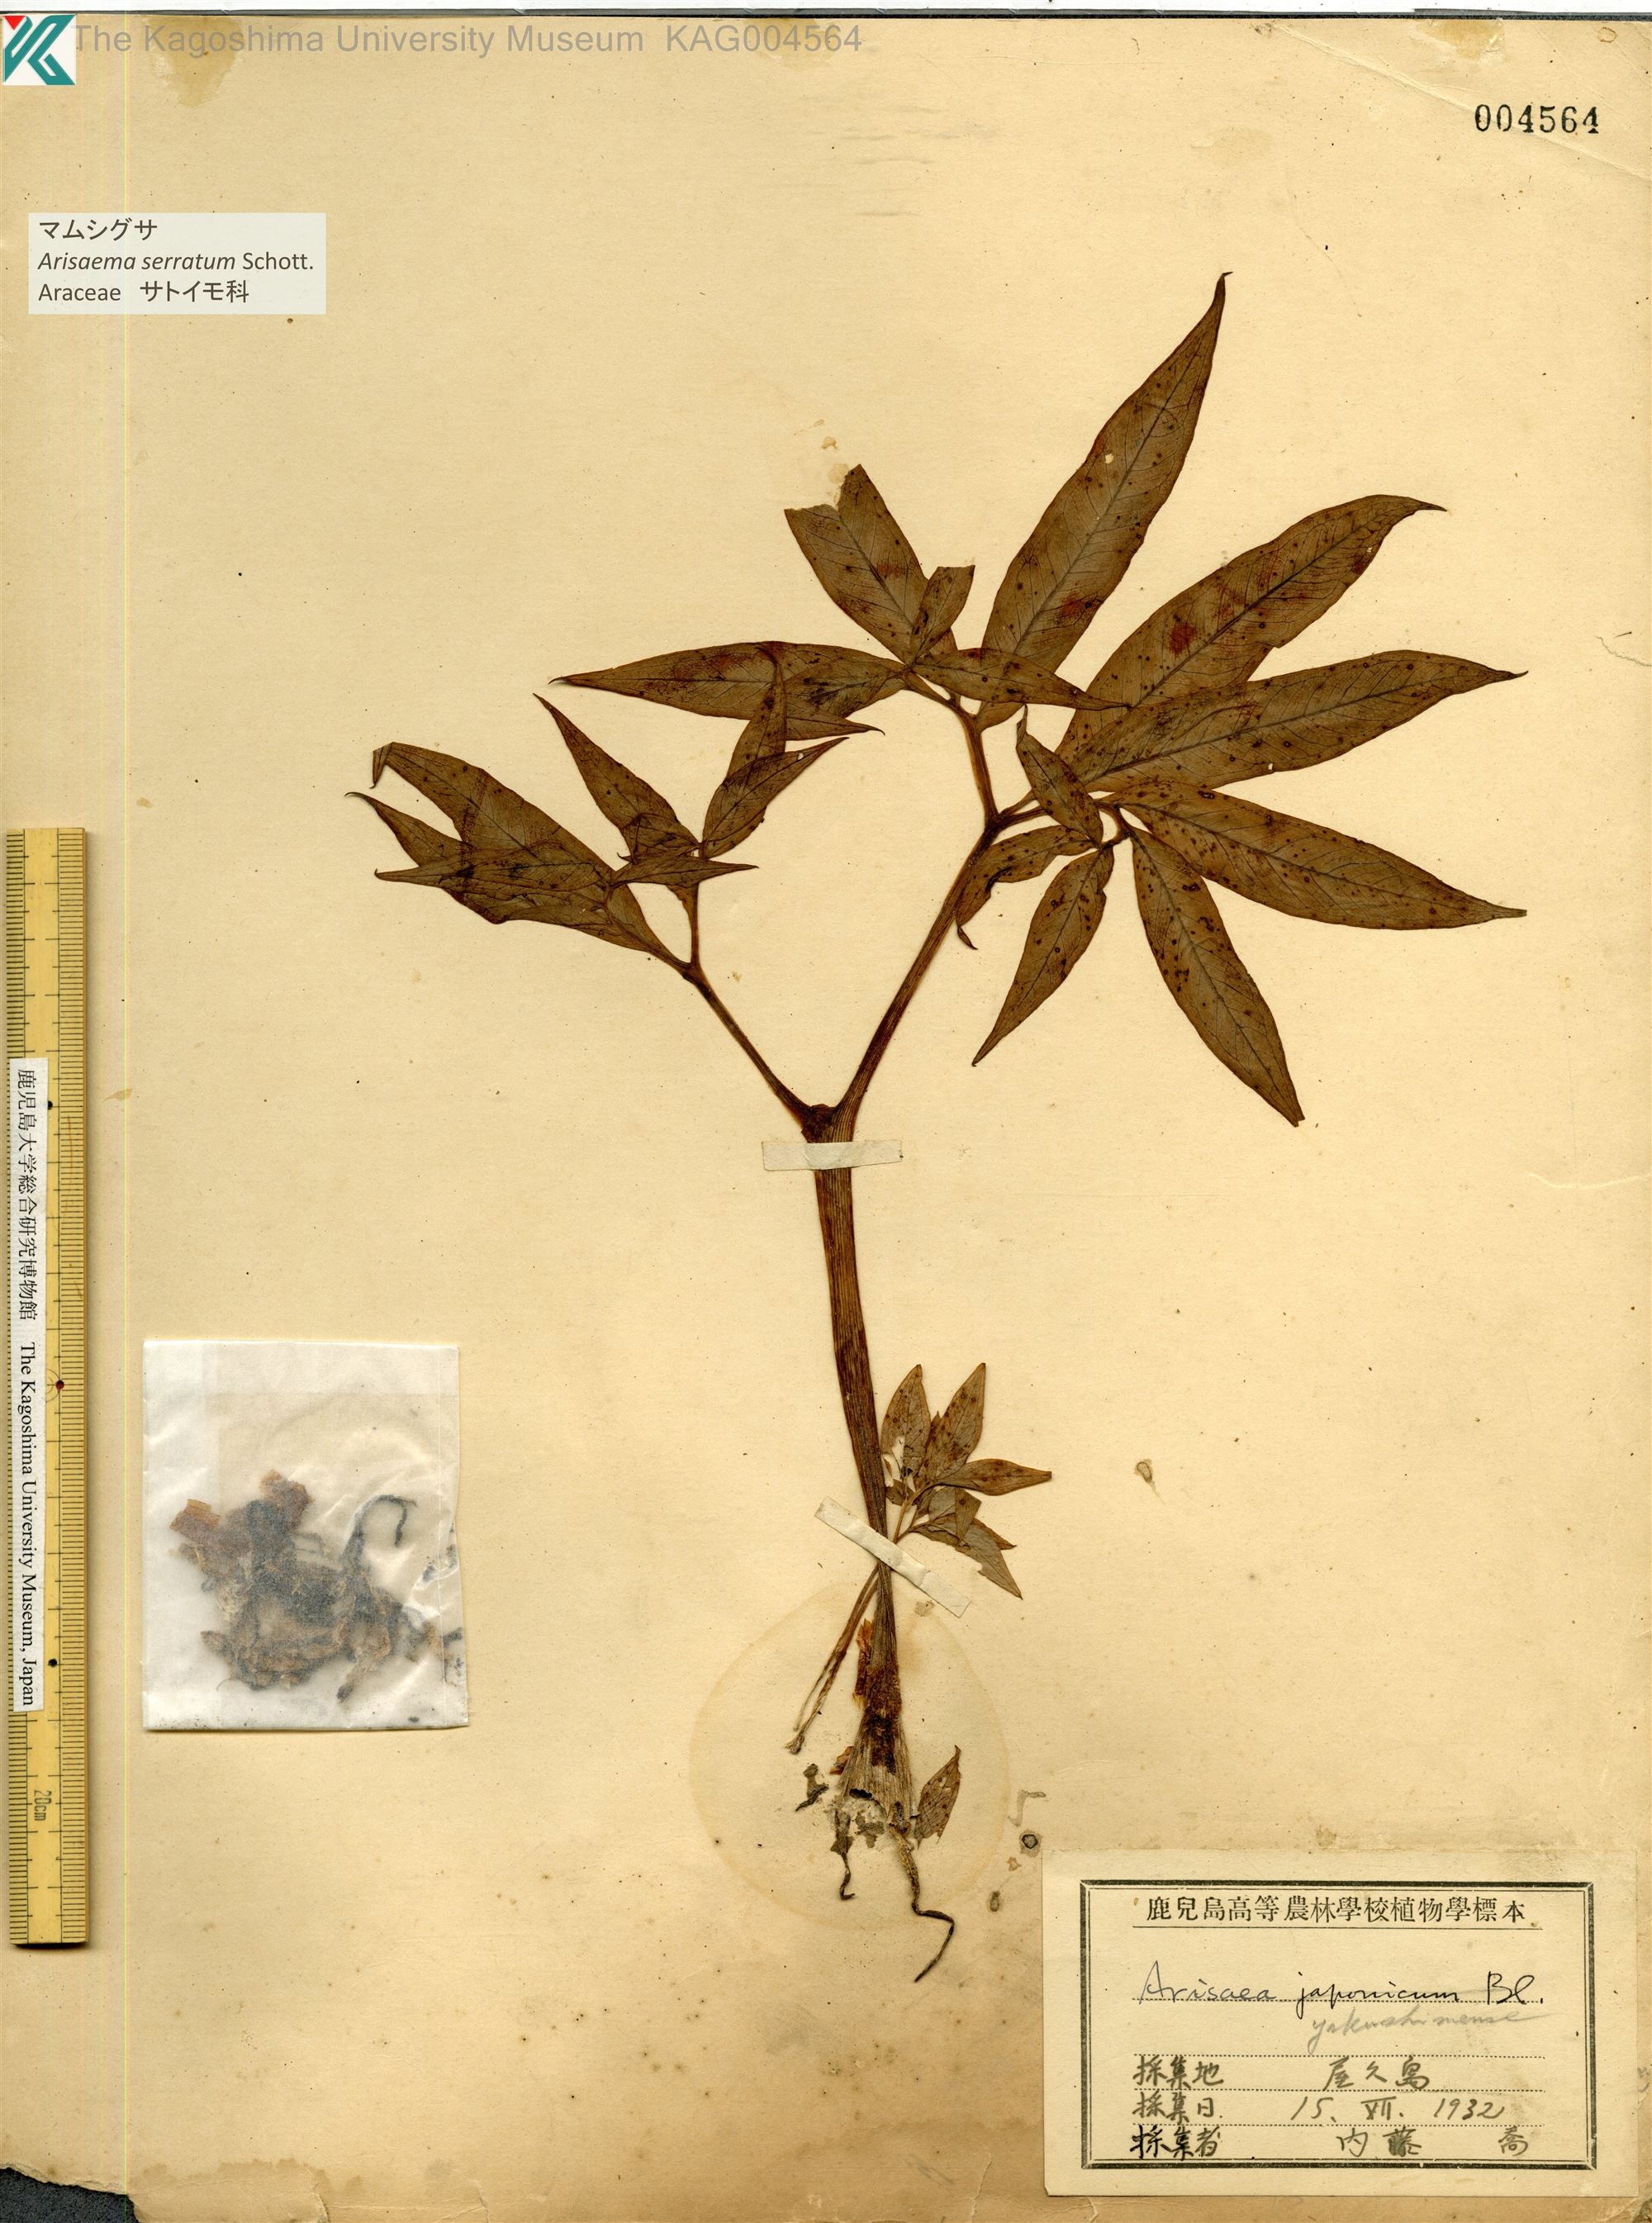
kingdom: Plantae
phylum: Tracheophyta
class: Liliopsida
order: Alismatales
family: Araceae
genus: Arisaema
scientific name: Arisaema serratum
